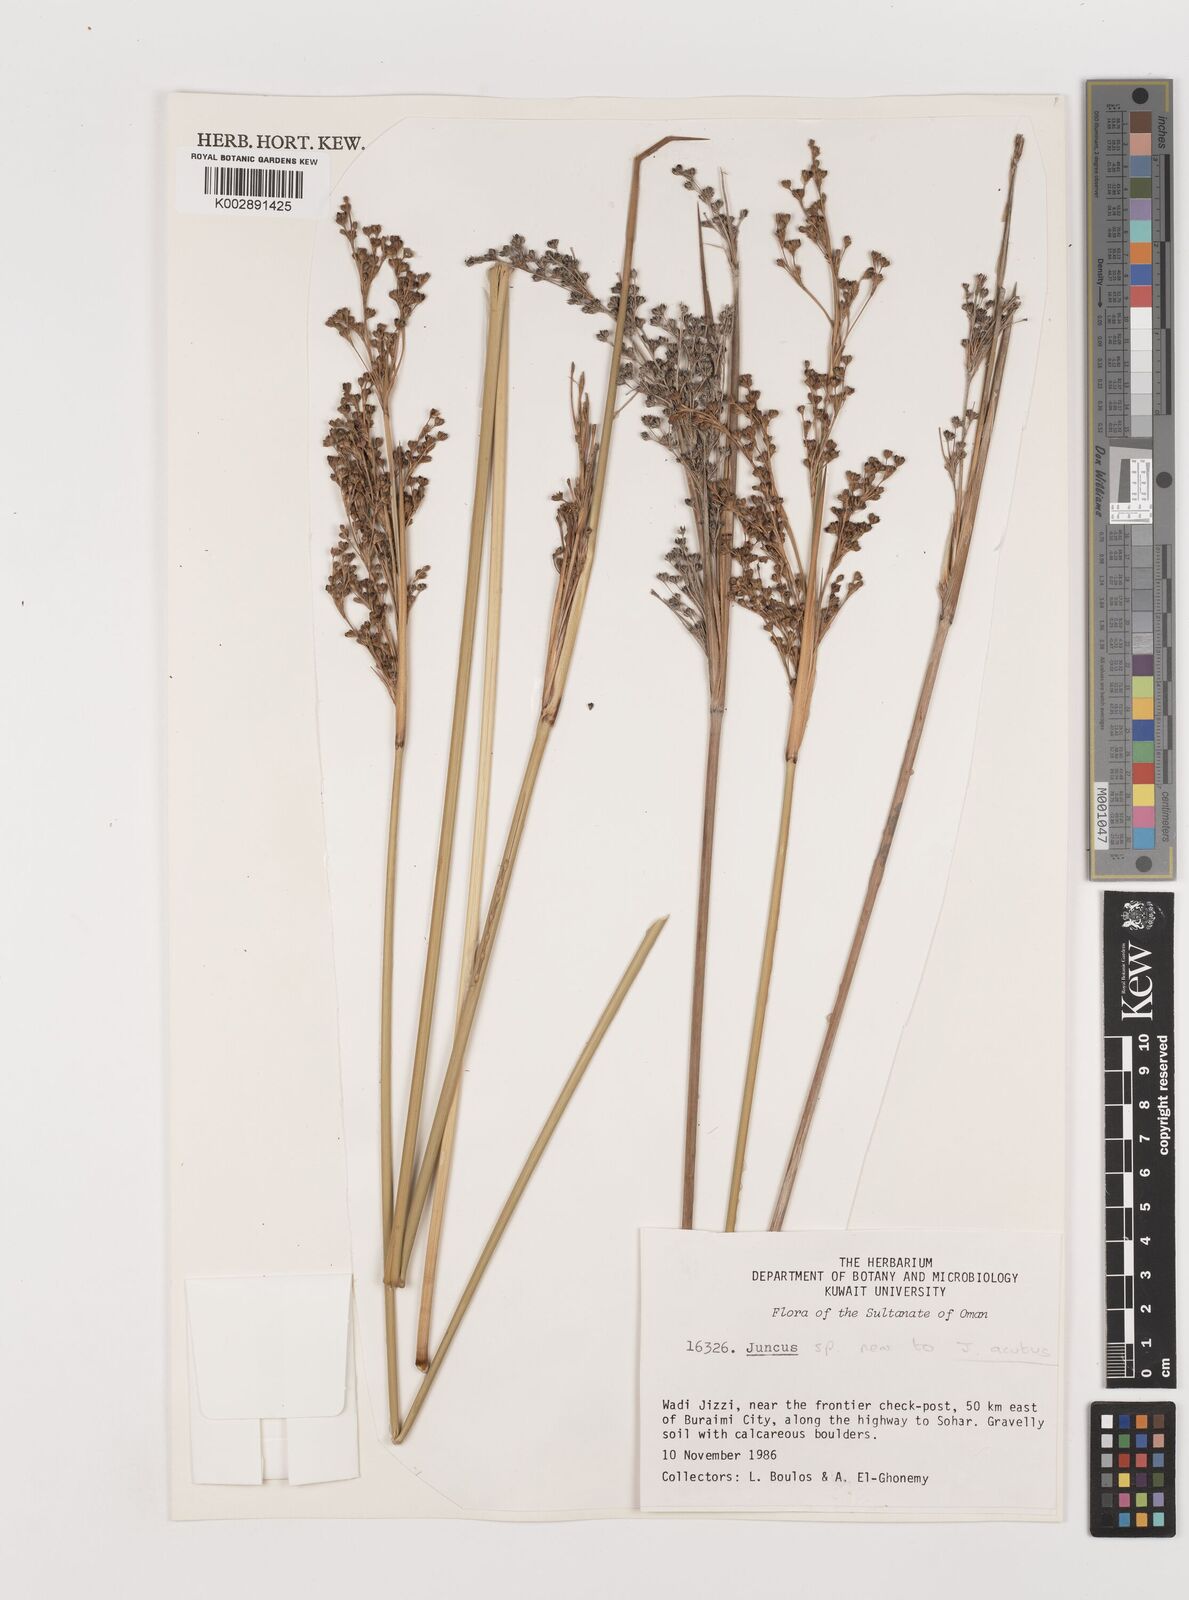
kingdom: Plantae
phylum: Tracheophyta
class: Liliopsida
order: Poales
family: Juncaceae
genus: Juncus
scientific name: Juncus acutus
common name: Sharp rush
